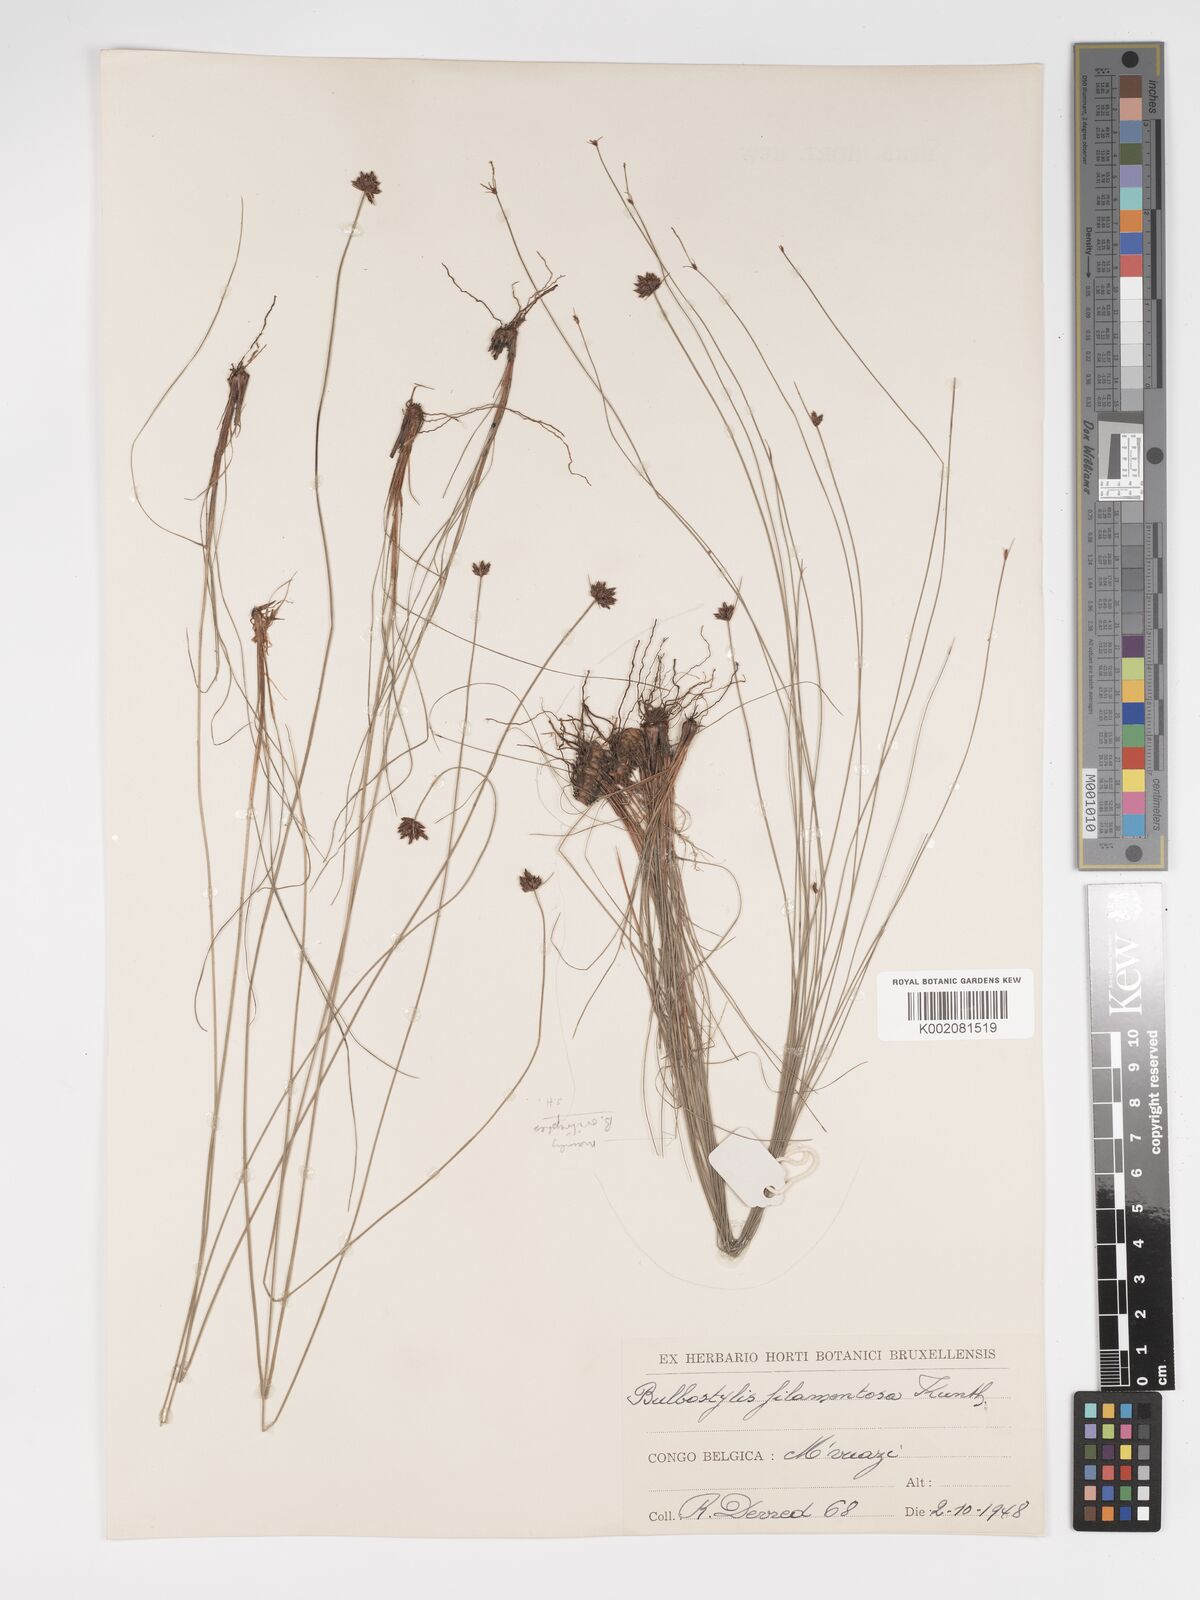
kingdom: Plantae
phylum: Tracheophyta
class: Liliopsida
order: Poales
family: Cyperaceae
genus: Bulbostylis
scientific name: Bulbostylis scabricaulis
